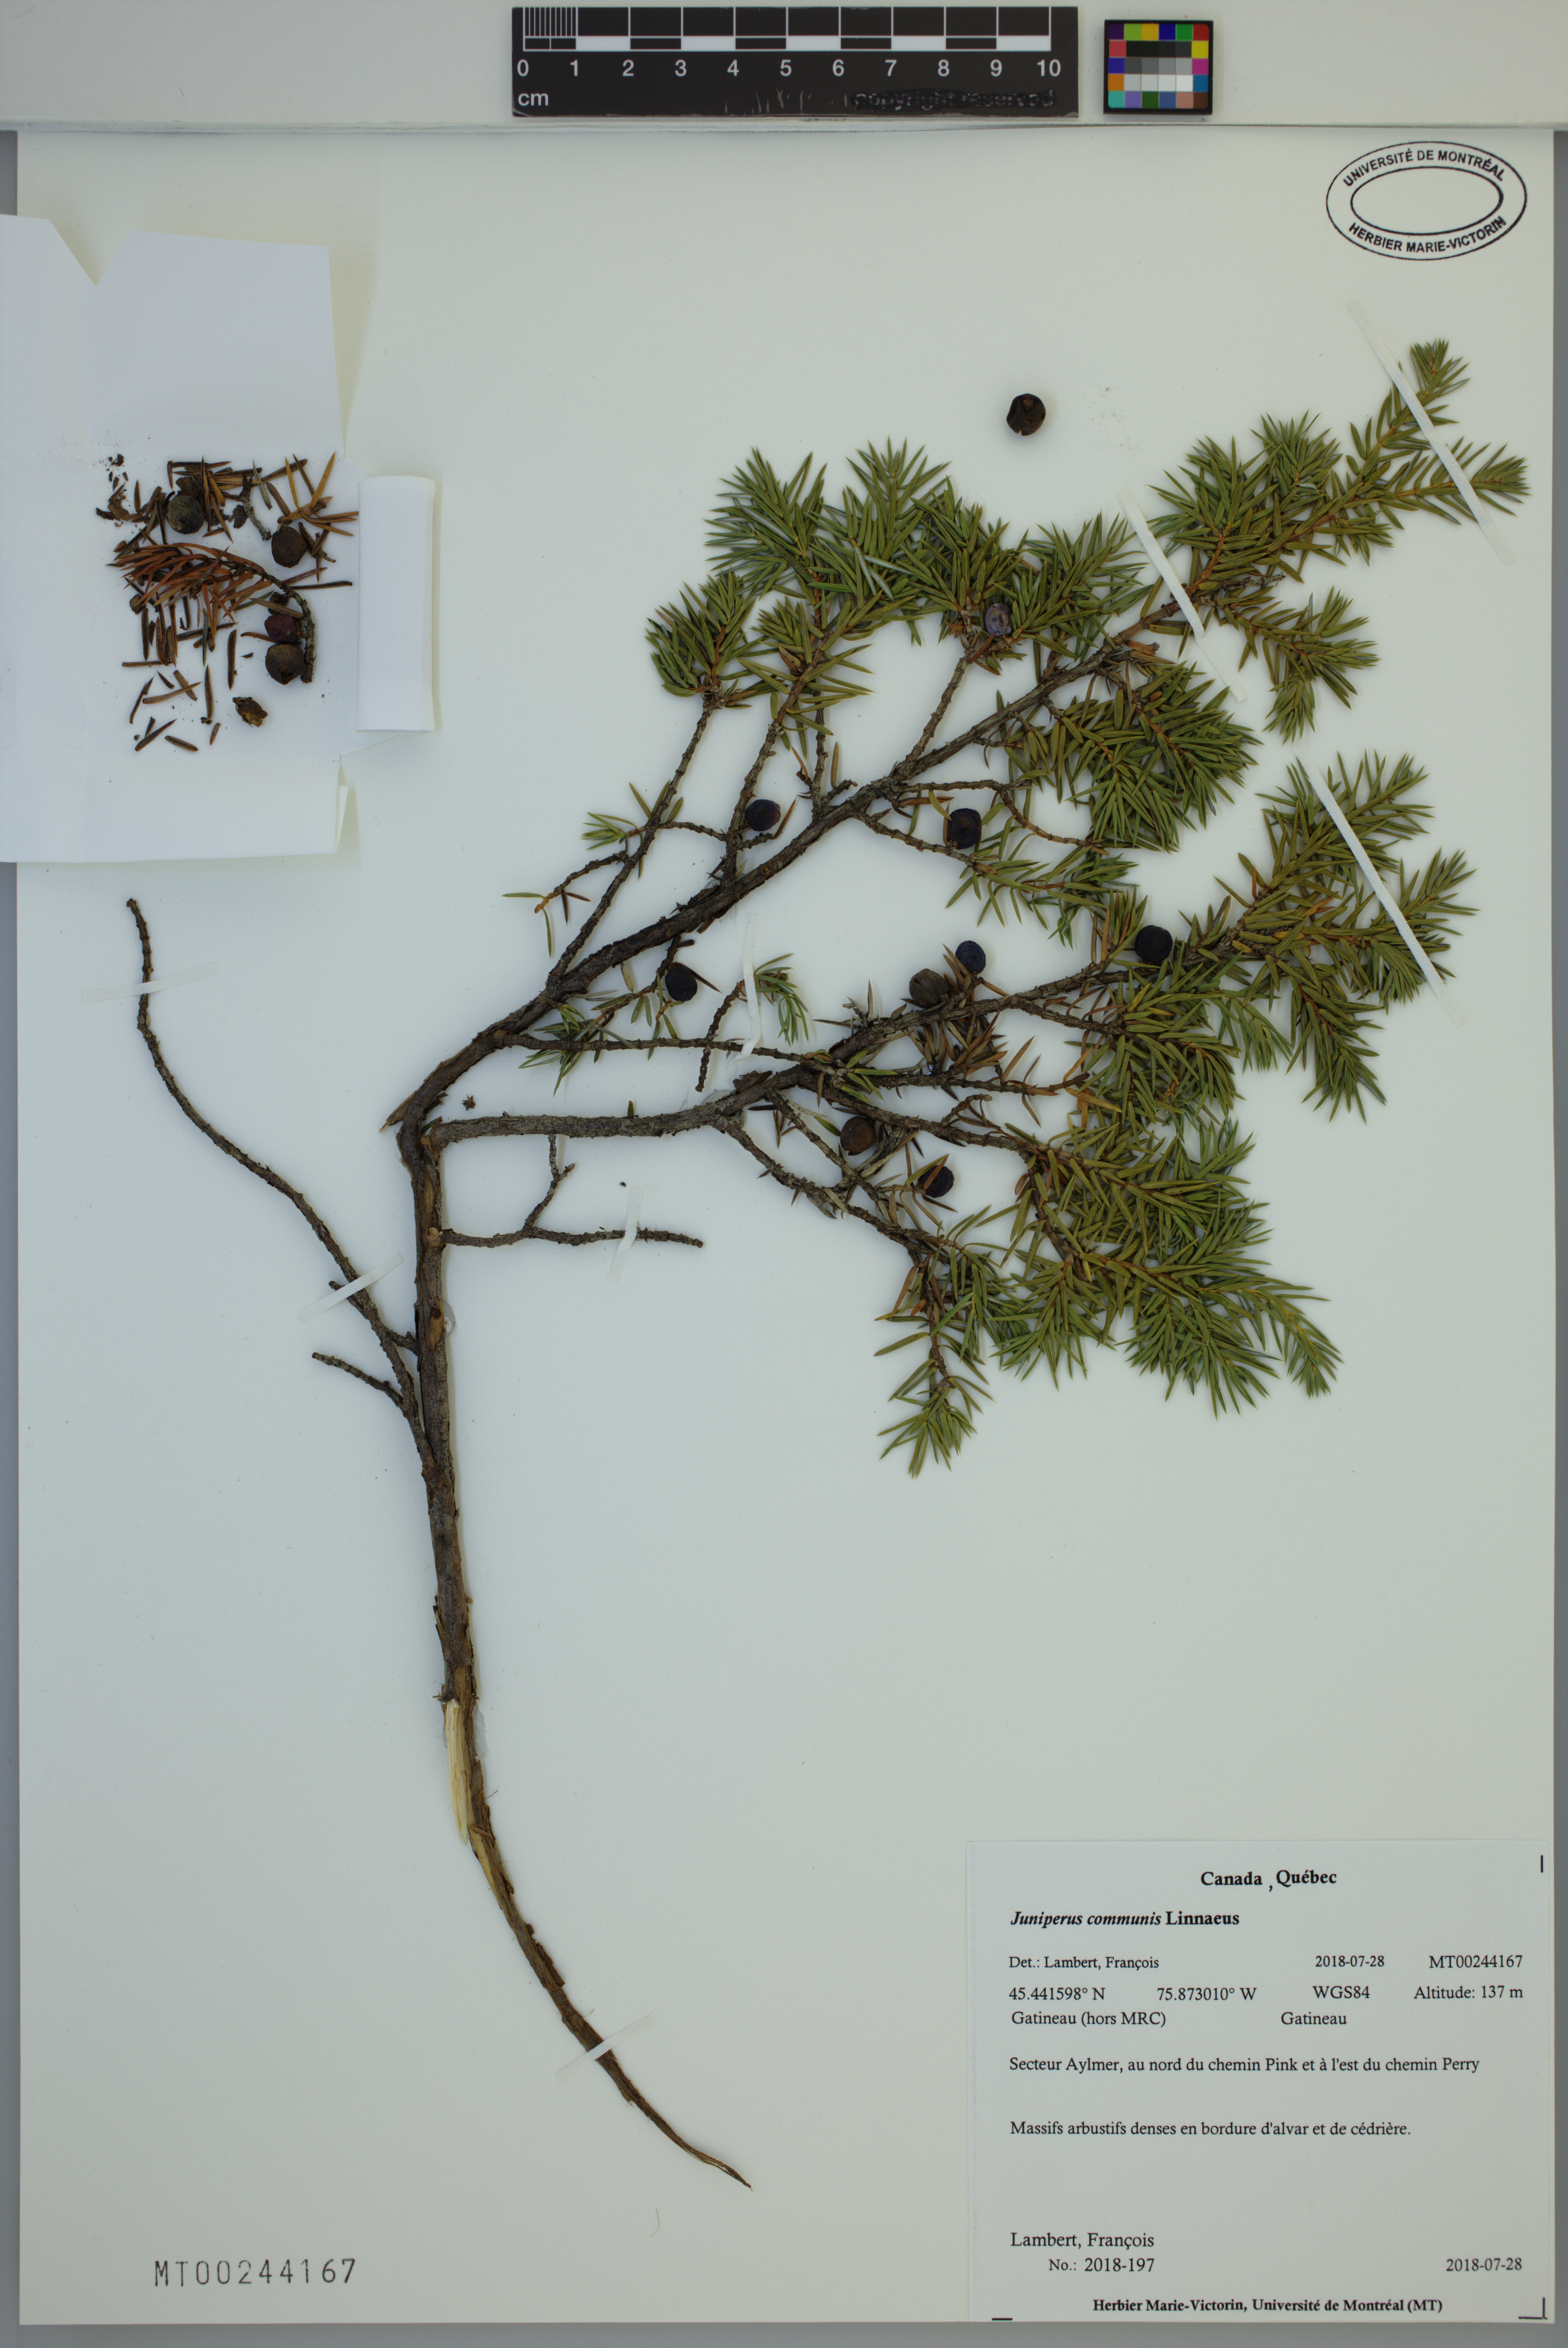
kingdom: Plantae
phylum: Tracheophyta
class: Pinopsida
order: Pinales
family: Cupressaceae
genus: Juniperus
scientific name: Juniperus communis
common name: Common juniper
